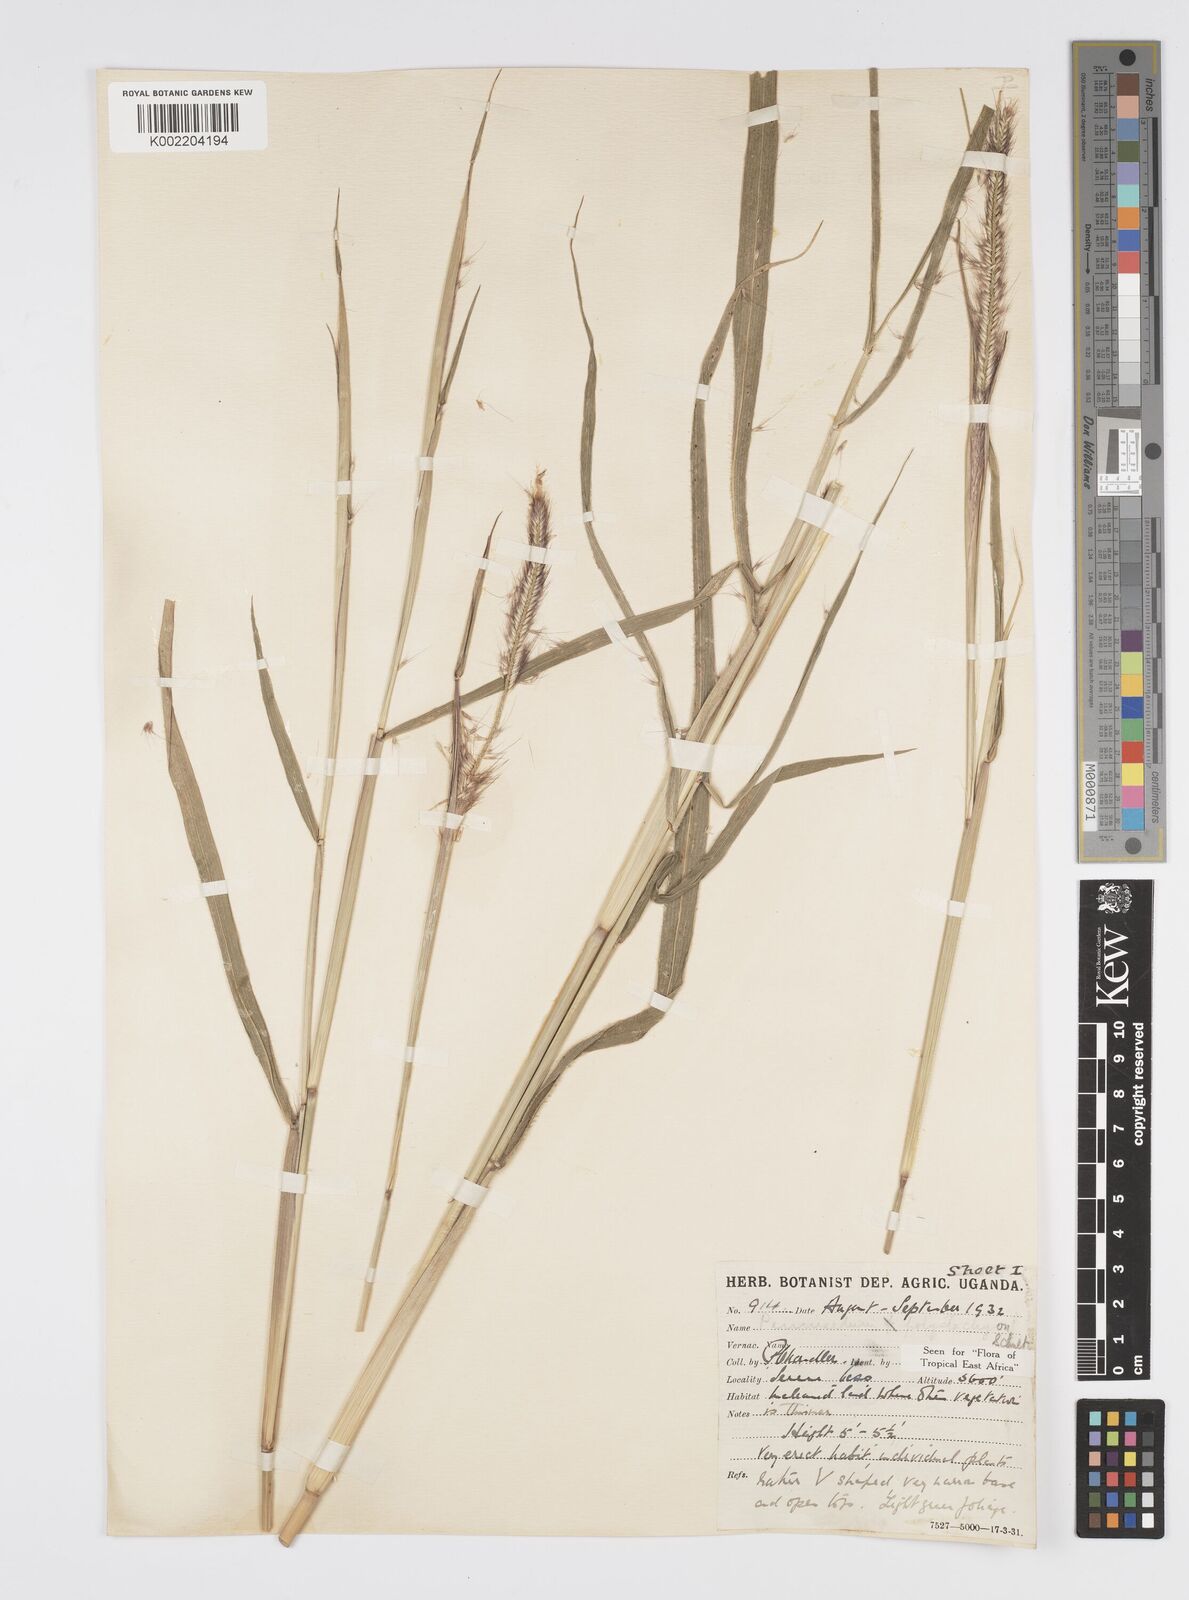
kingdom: Plantae
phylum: Tracheophyta
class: Liliopsida
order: Poales
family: Poaceae
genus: Setaria
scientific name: Setaria parviflora
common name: Knotroot bristle-grass
